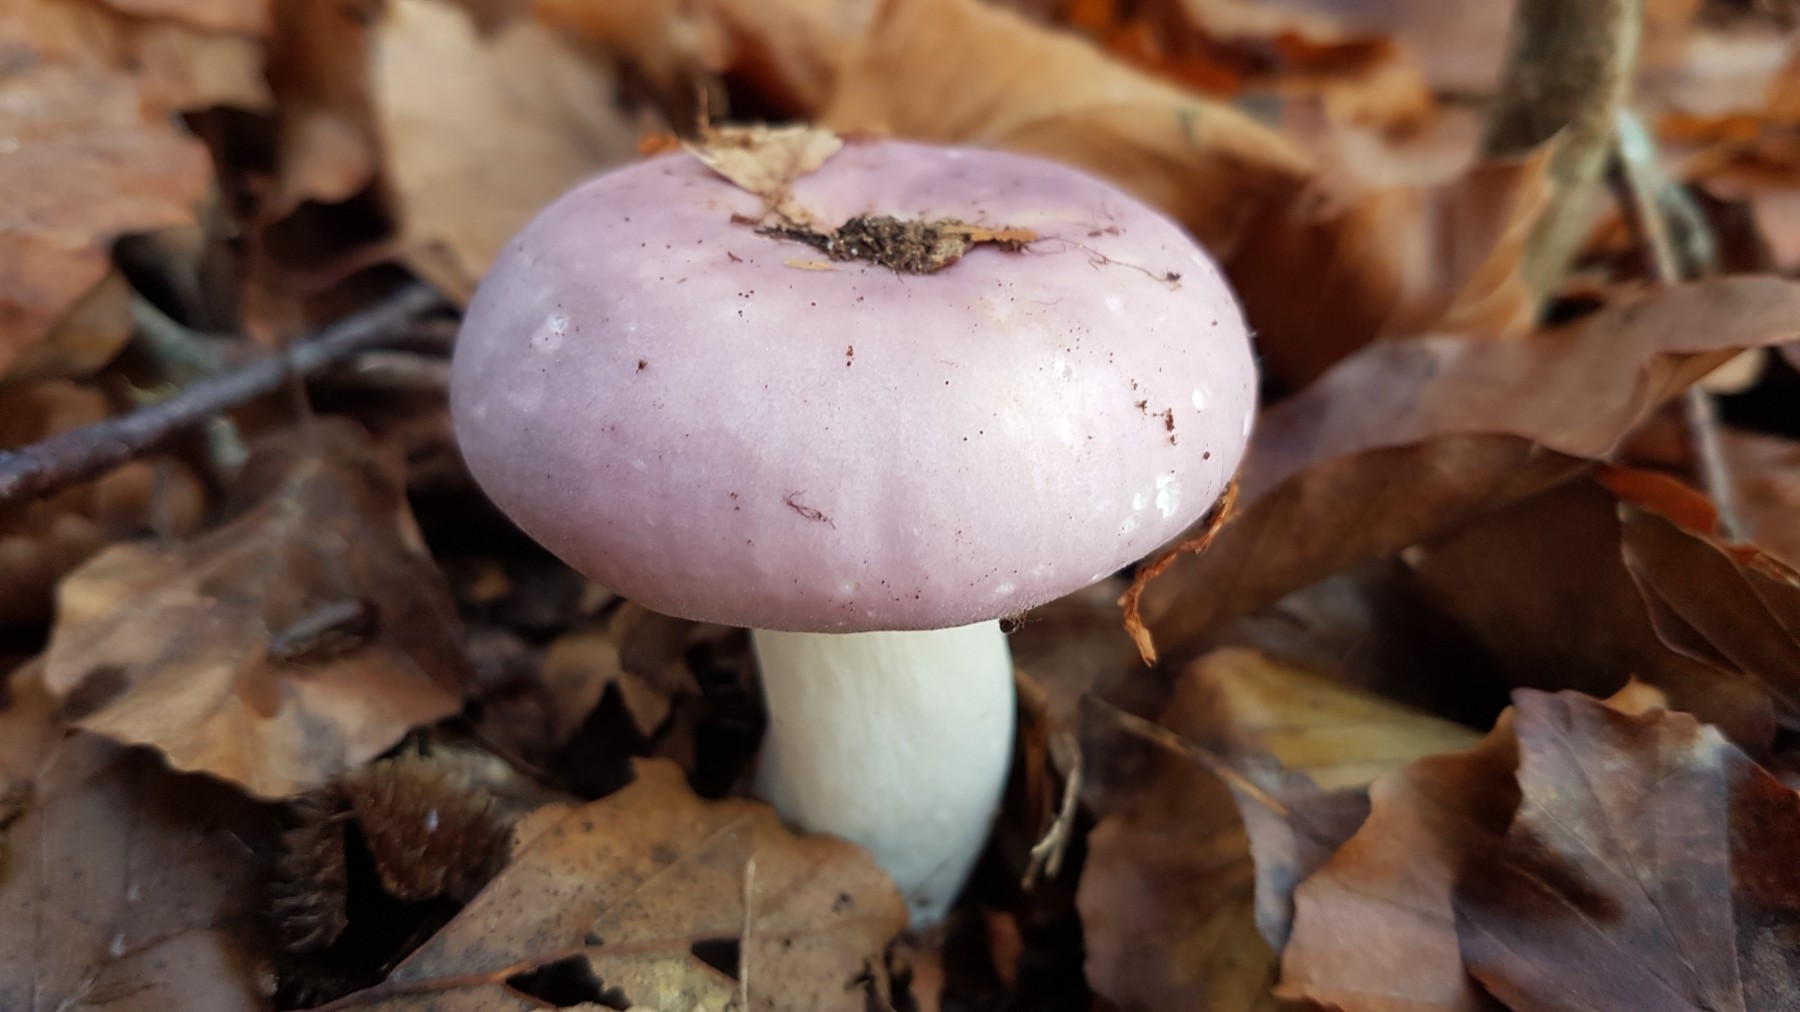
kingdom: Fungi
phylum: Basidiomycota
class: Agaricomycetes
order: Russulales
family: Russulaceae
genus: Russula
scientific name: Russula
